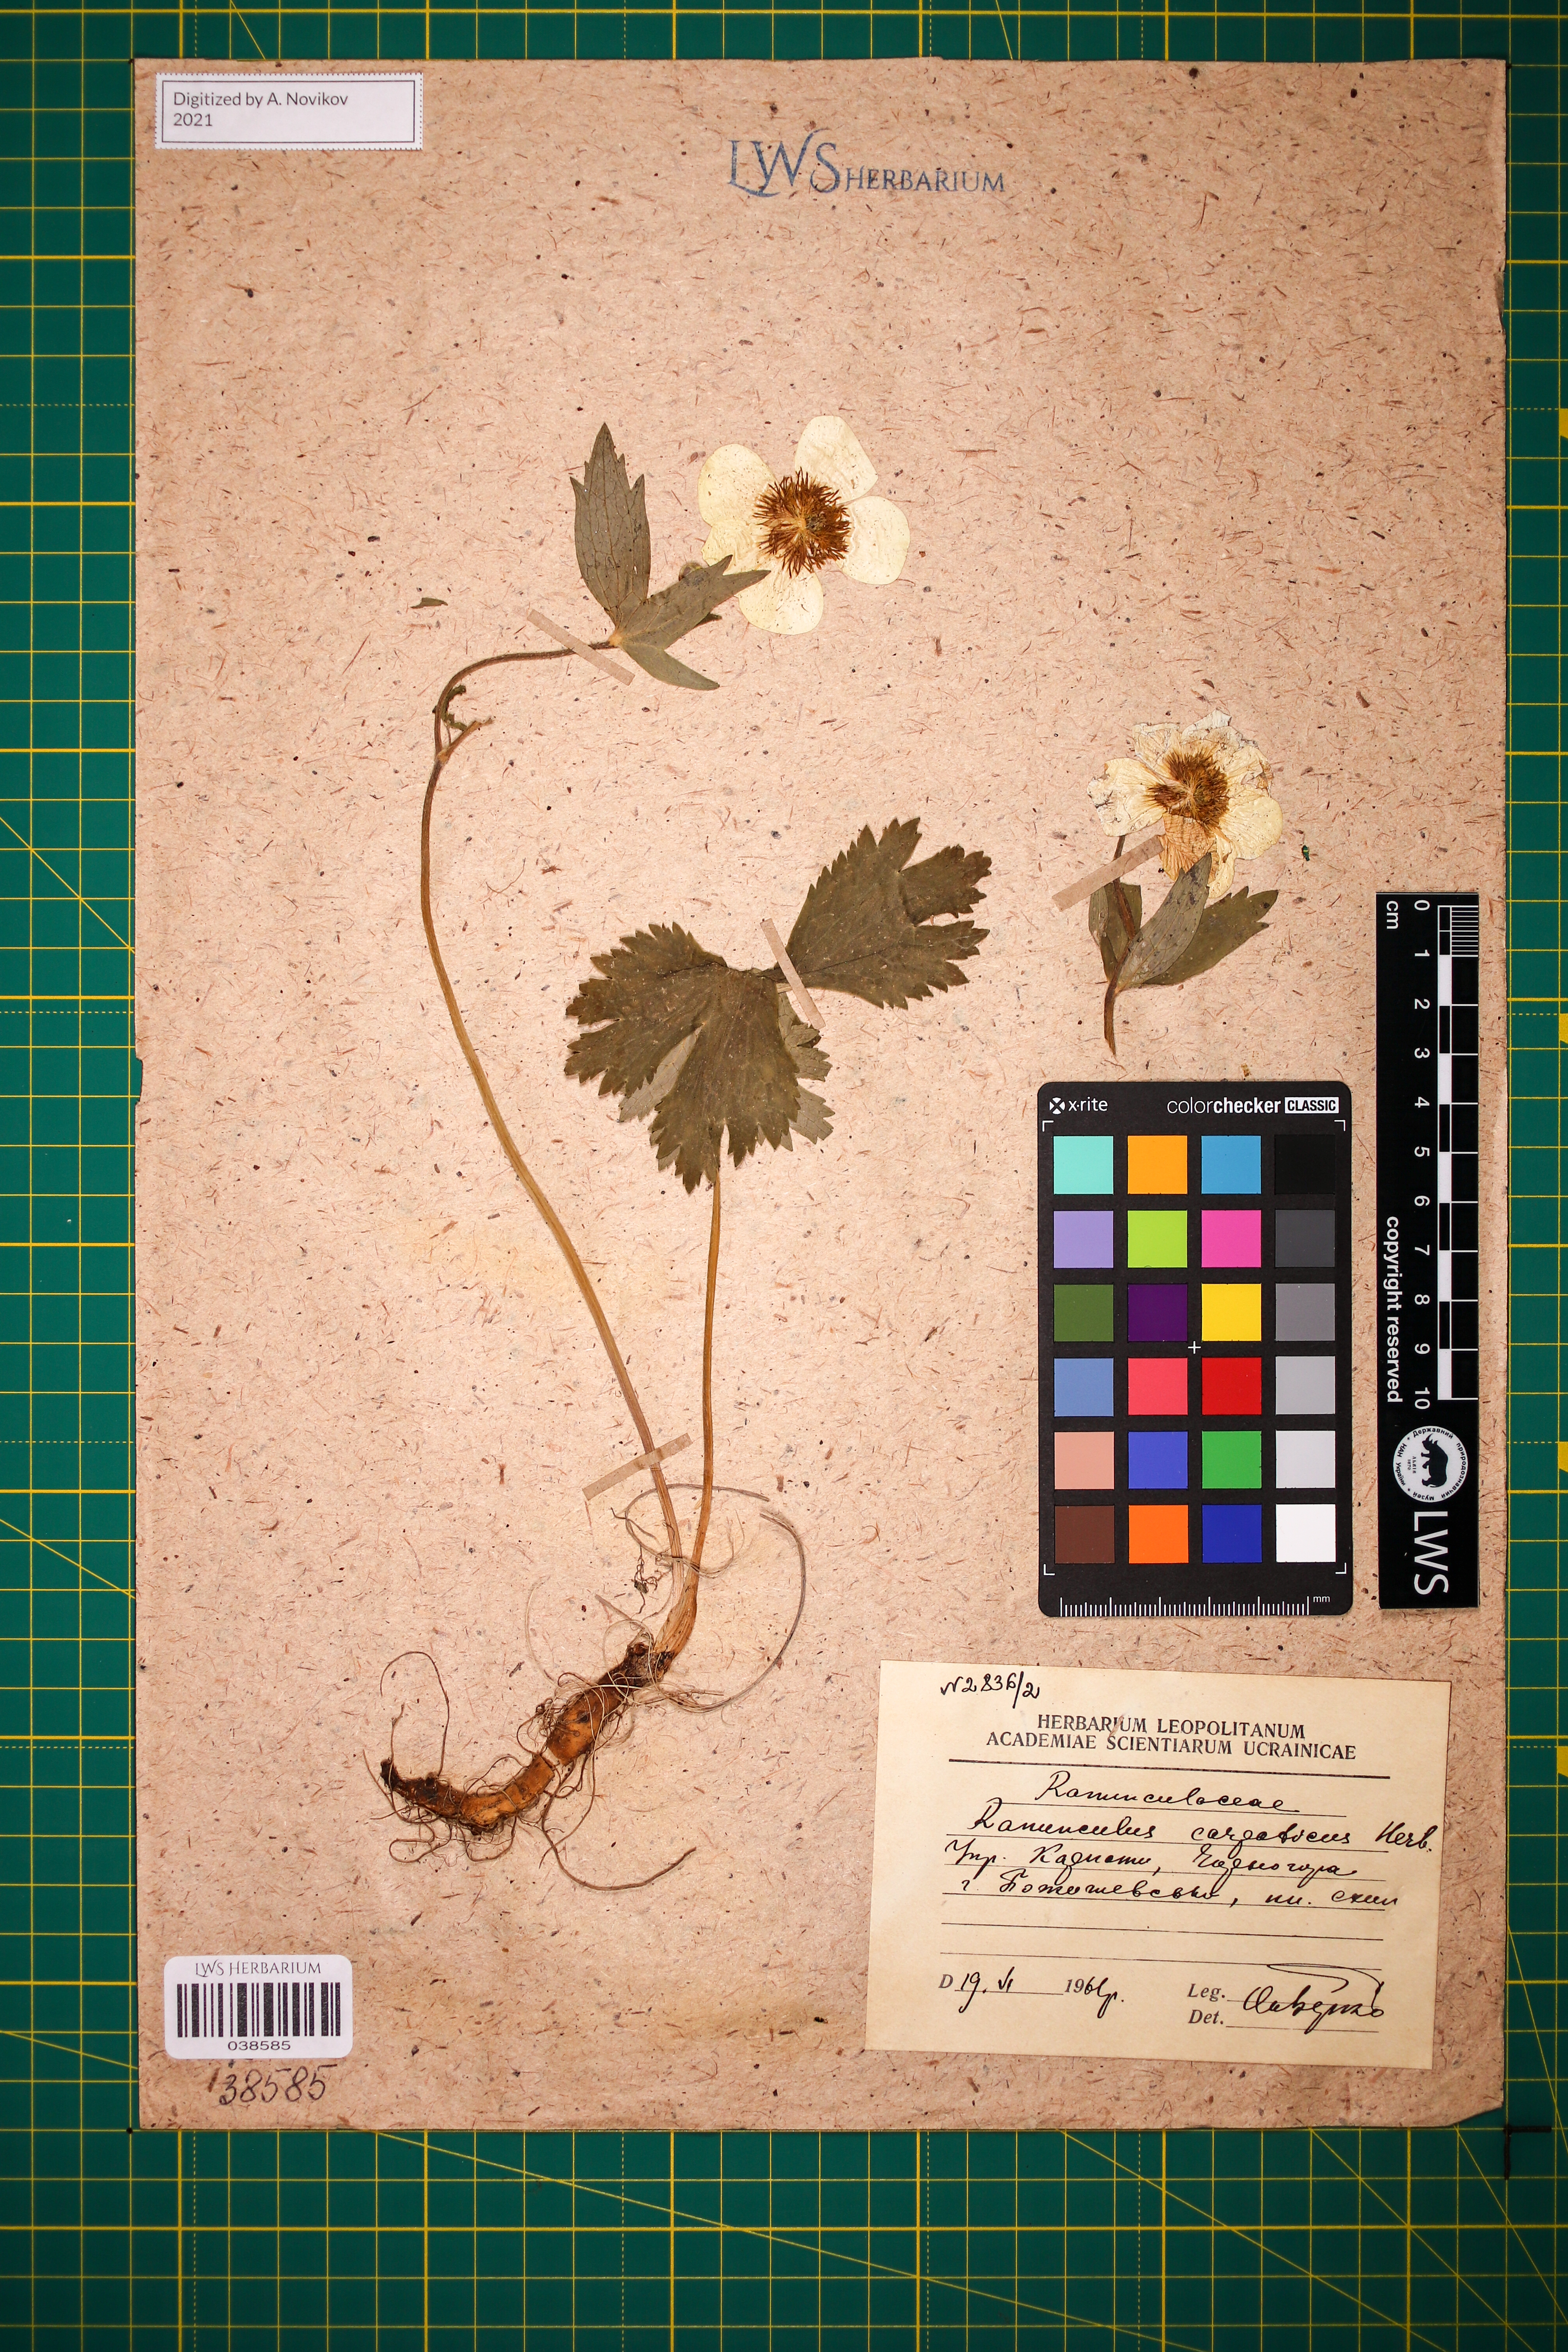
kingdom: Plantae
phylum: Tracheophyta
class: Magnoliopsida
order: Ranunculales
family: Ranunculaceae
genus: Ranunculus
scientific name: Ranunculus carpaticus
